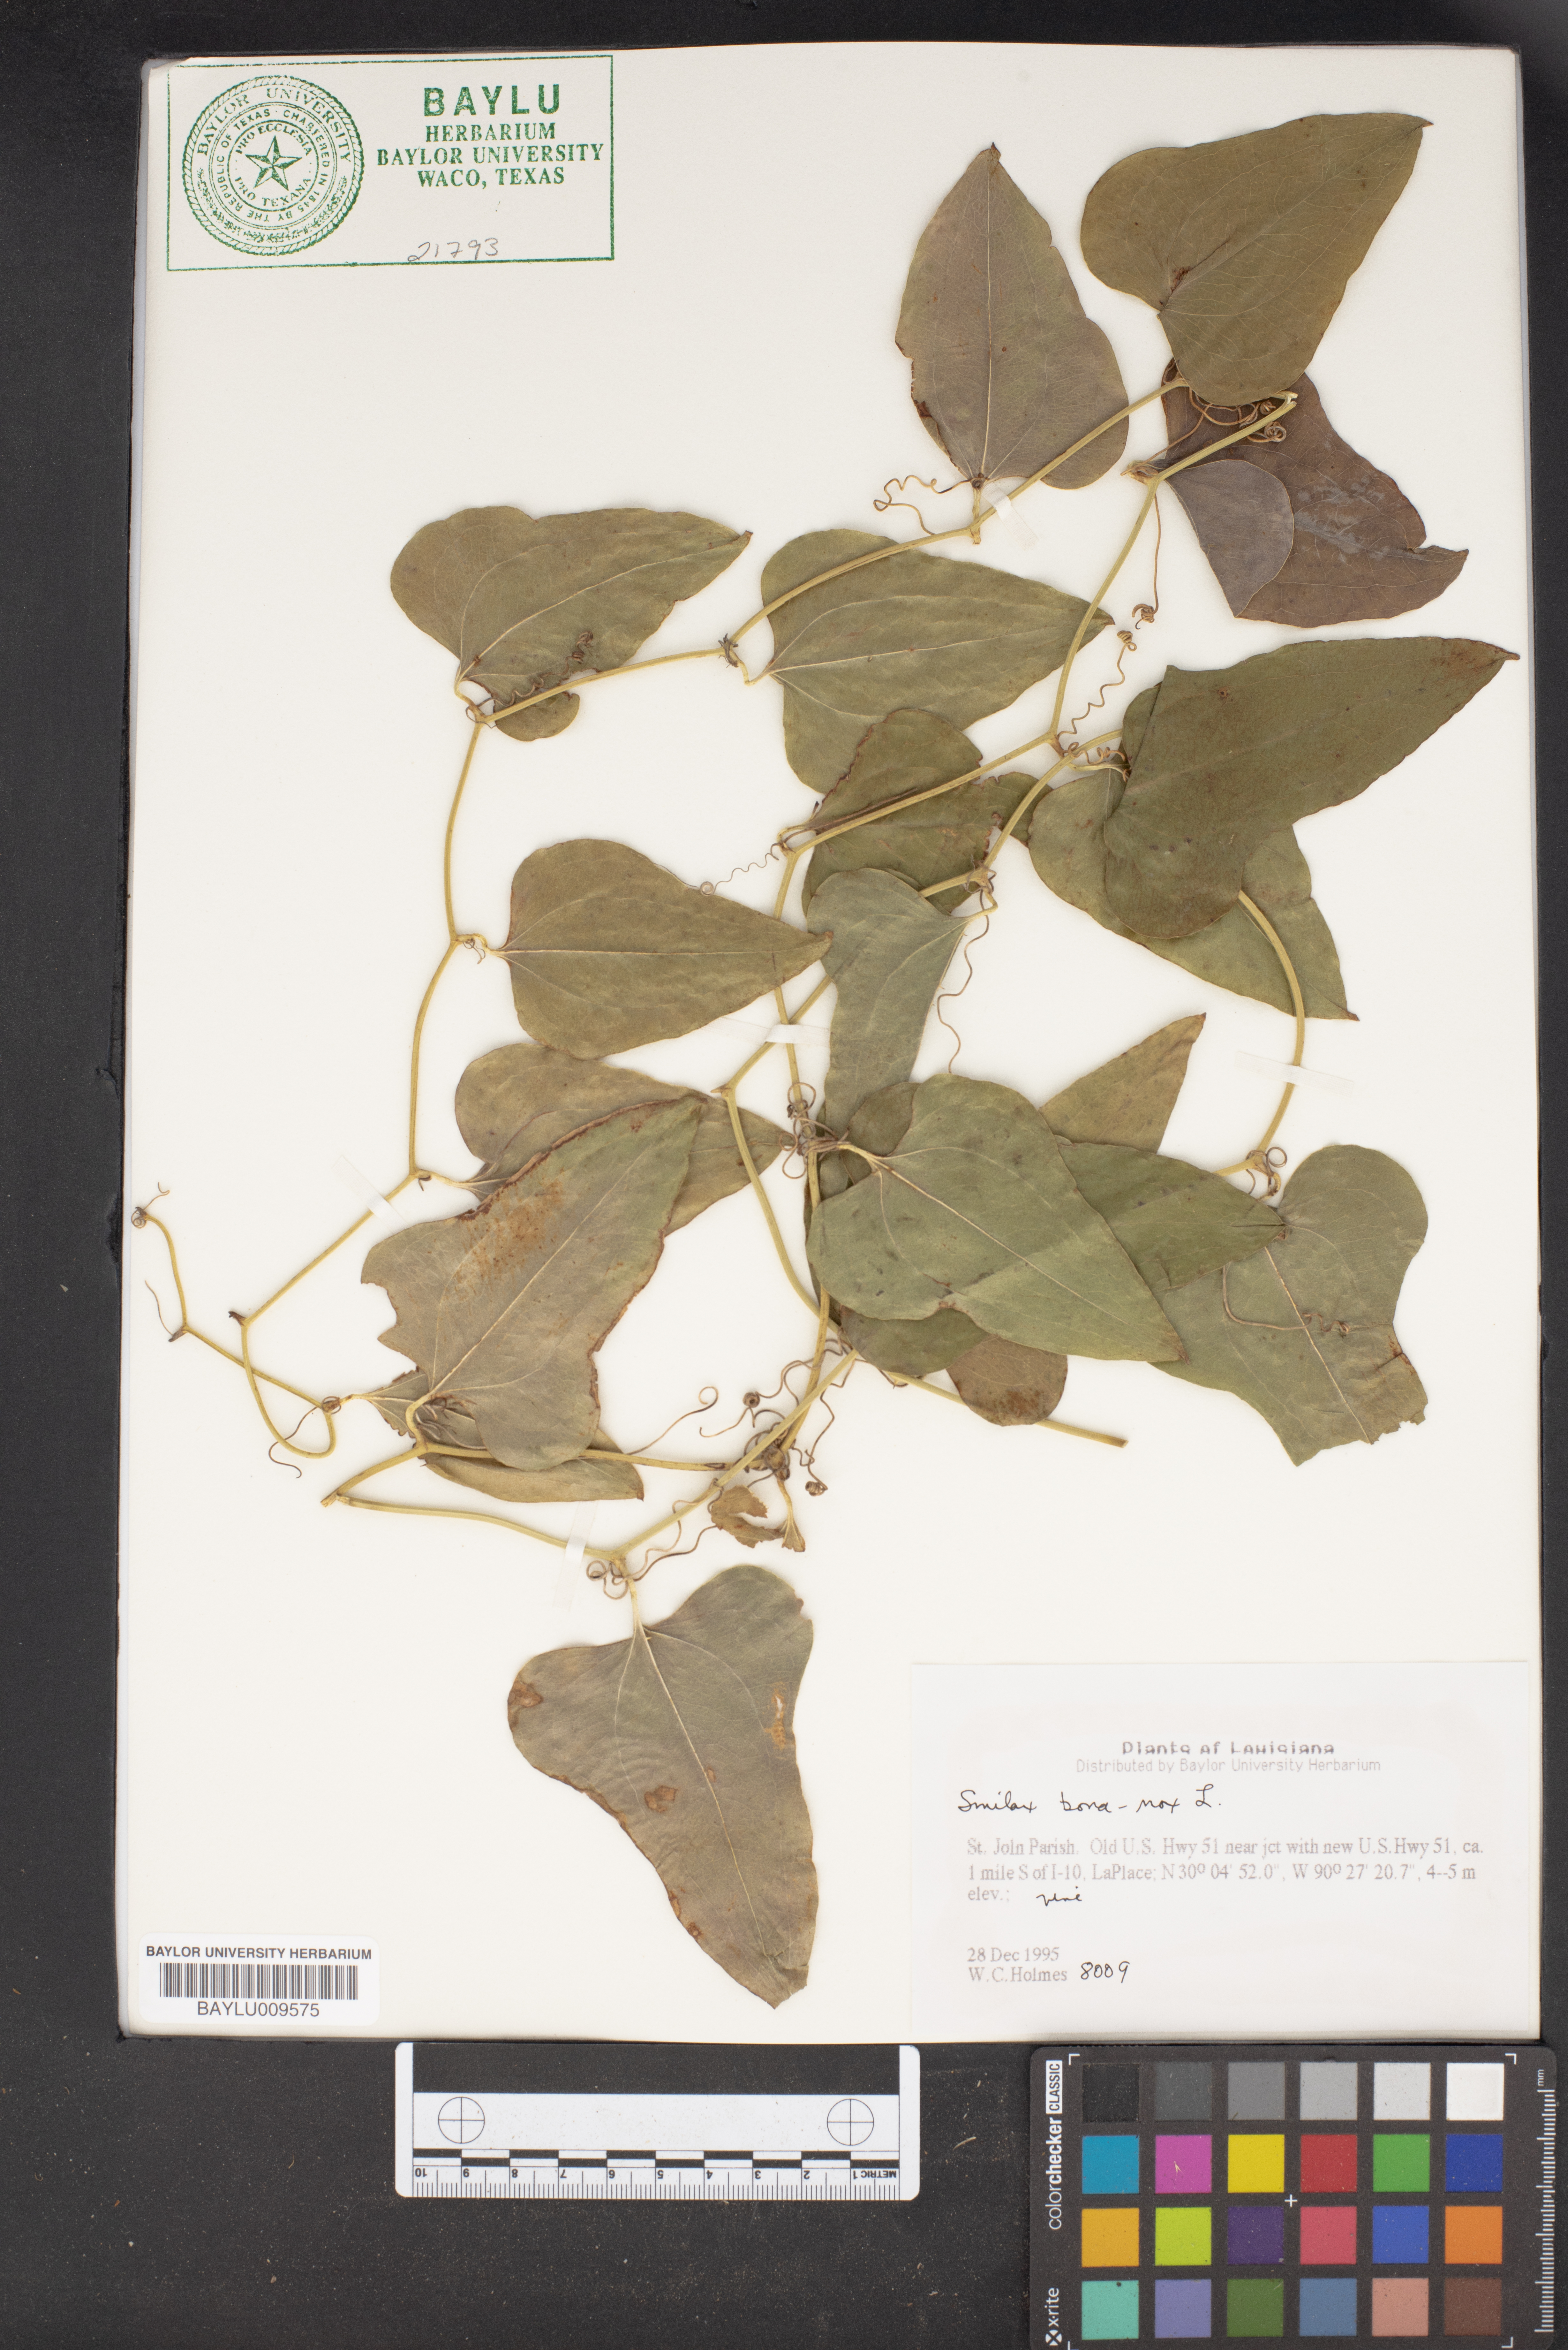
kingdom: Plantae
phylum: Tracheophyta
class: Liliopsida
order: Liliales
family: Smilacaceae
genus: Smilax
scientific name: Smilax bona-nox
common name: Catbrier
